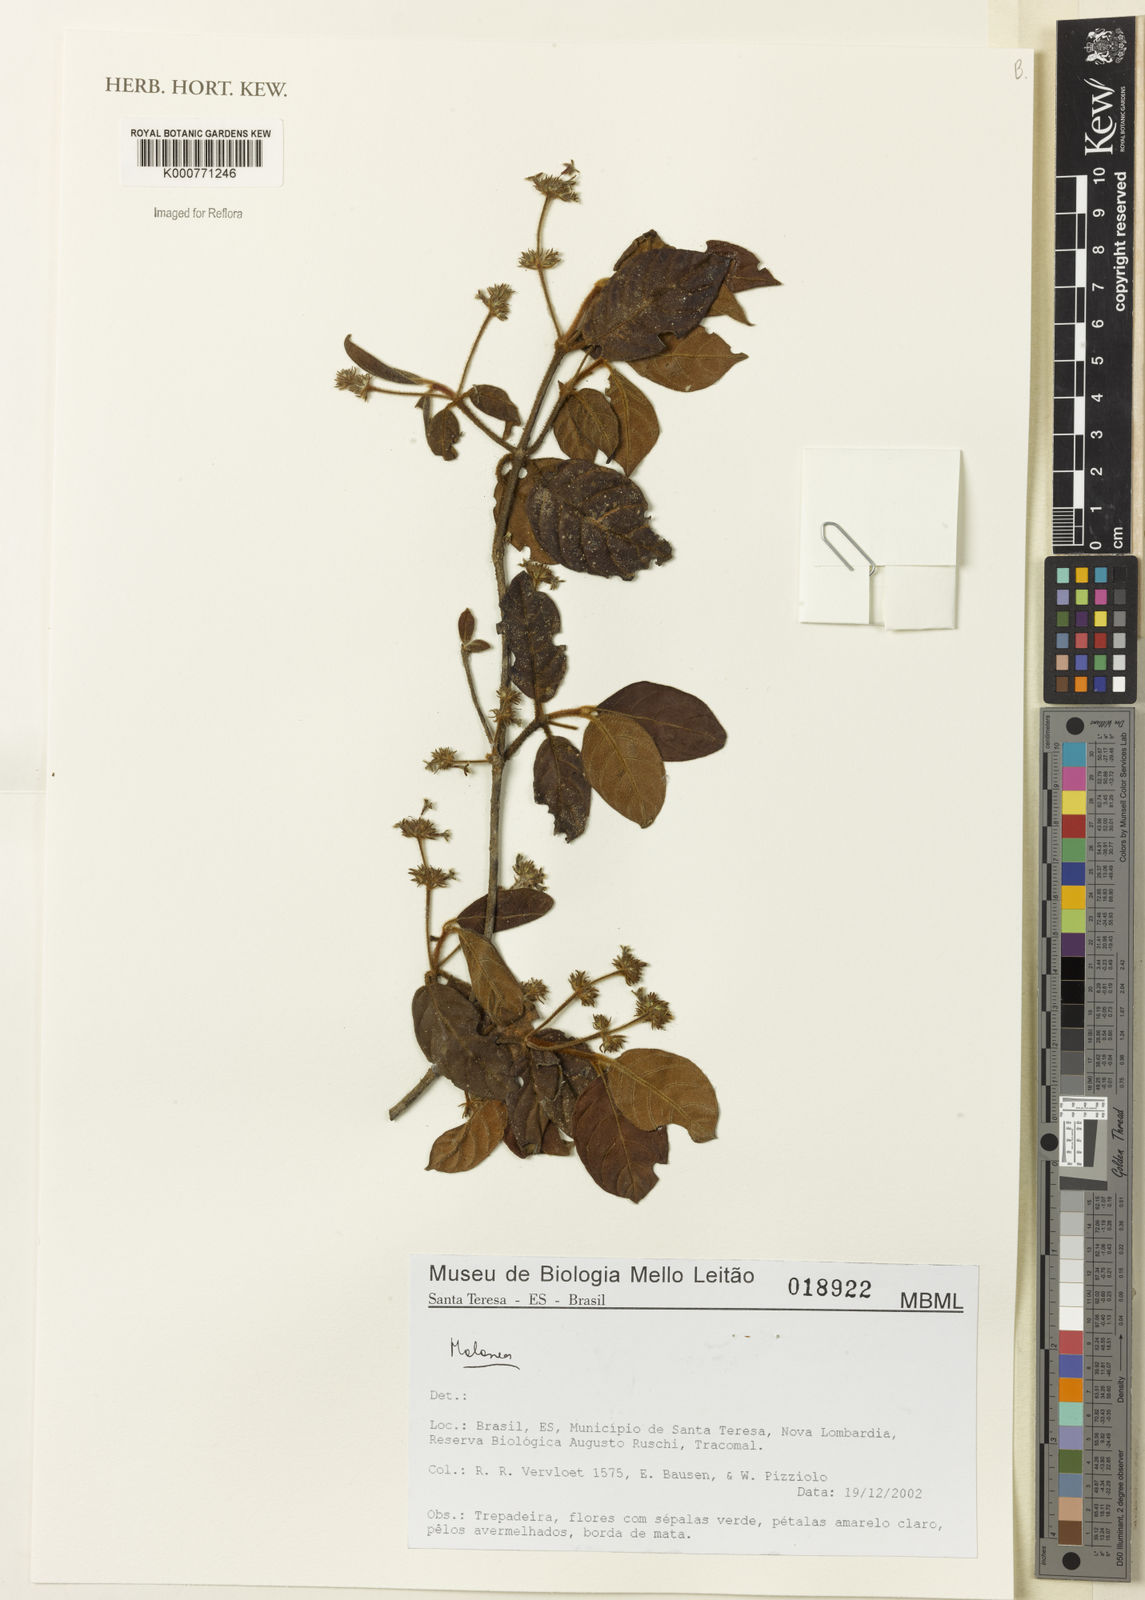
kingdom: Plantae
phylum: Tracheophyta
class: Magnoliopsida
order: Gentianales
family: Rubiaceae
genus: Malanea
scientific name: Malanea
